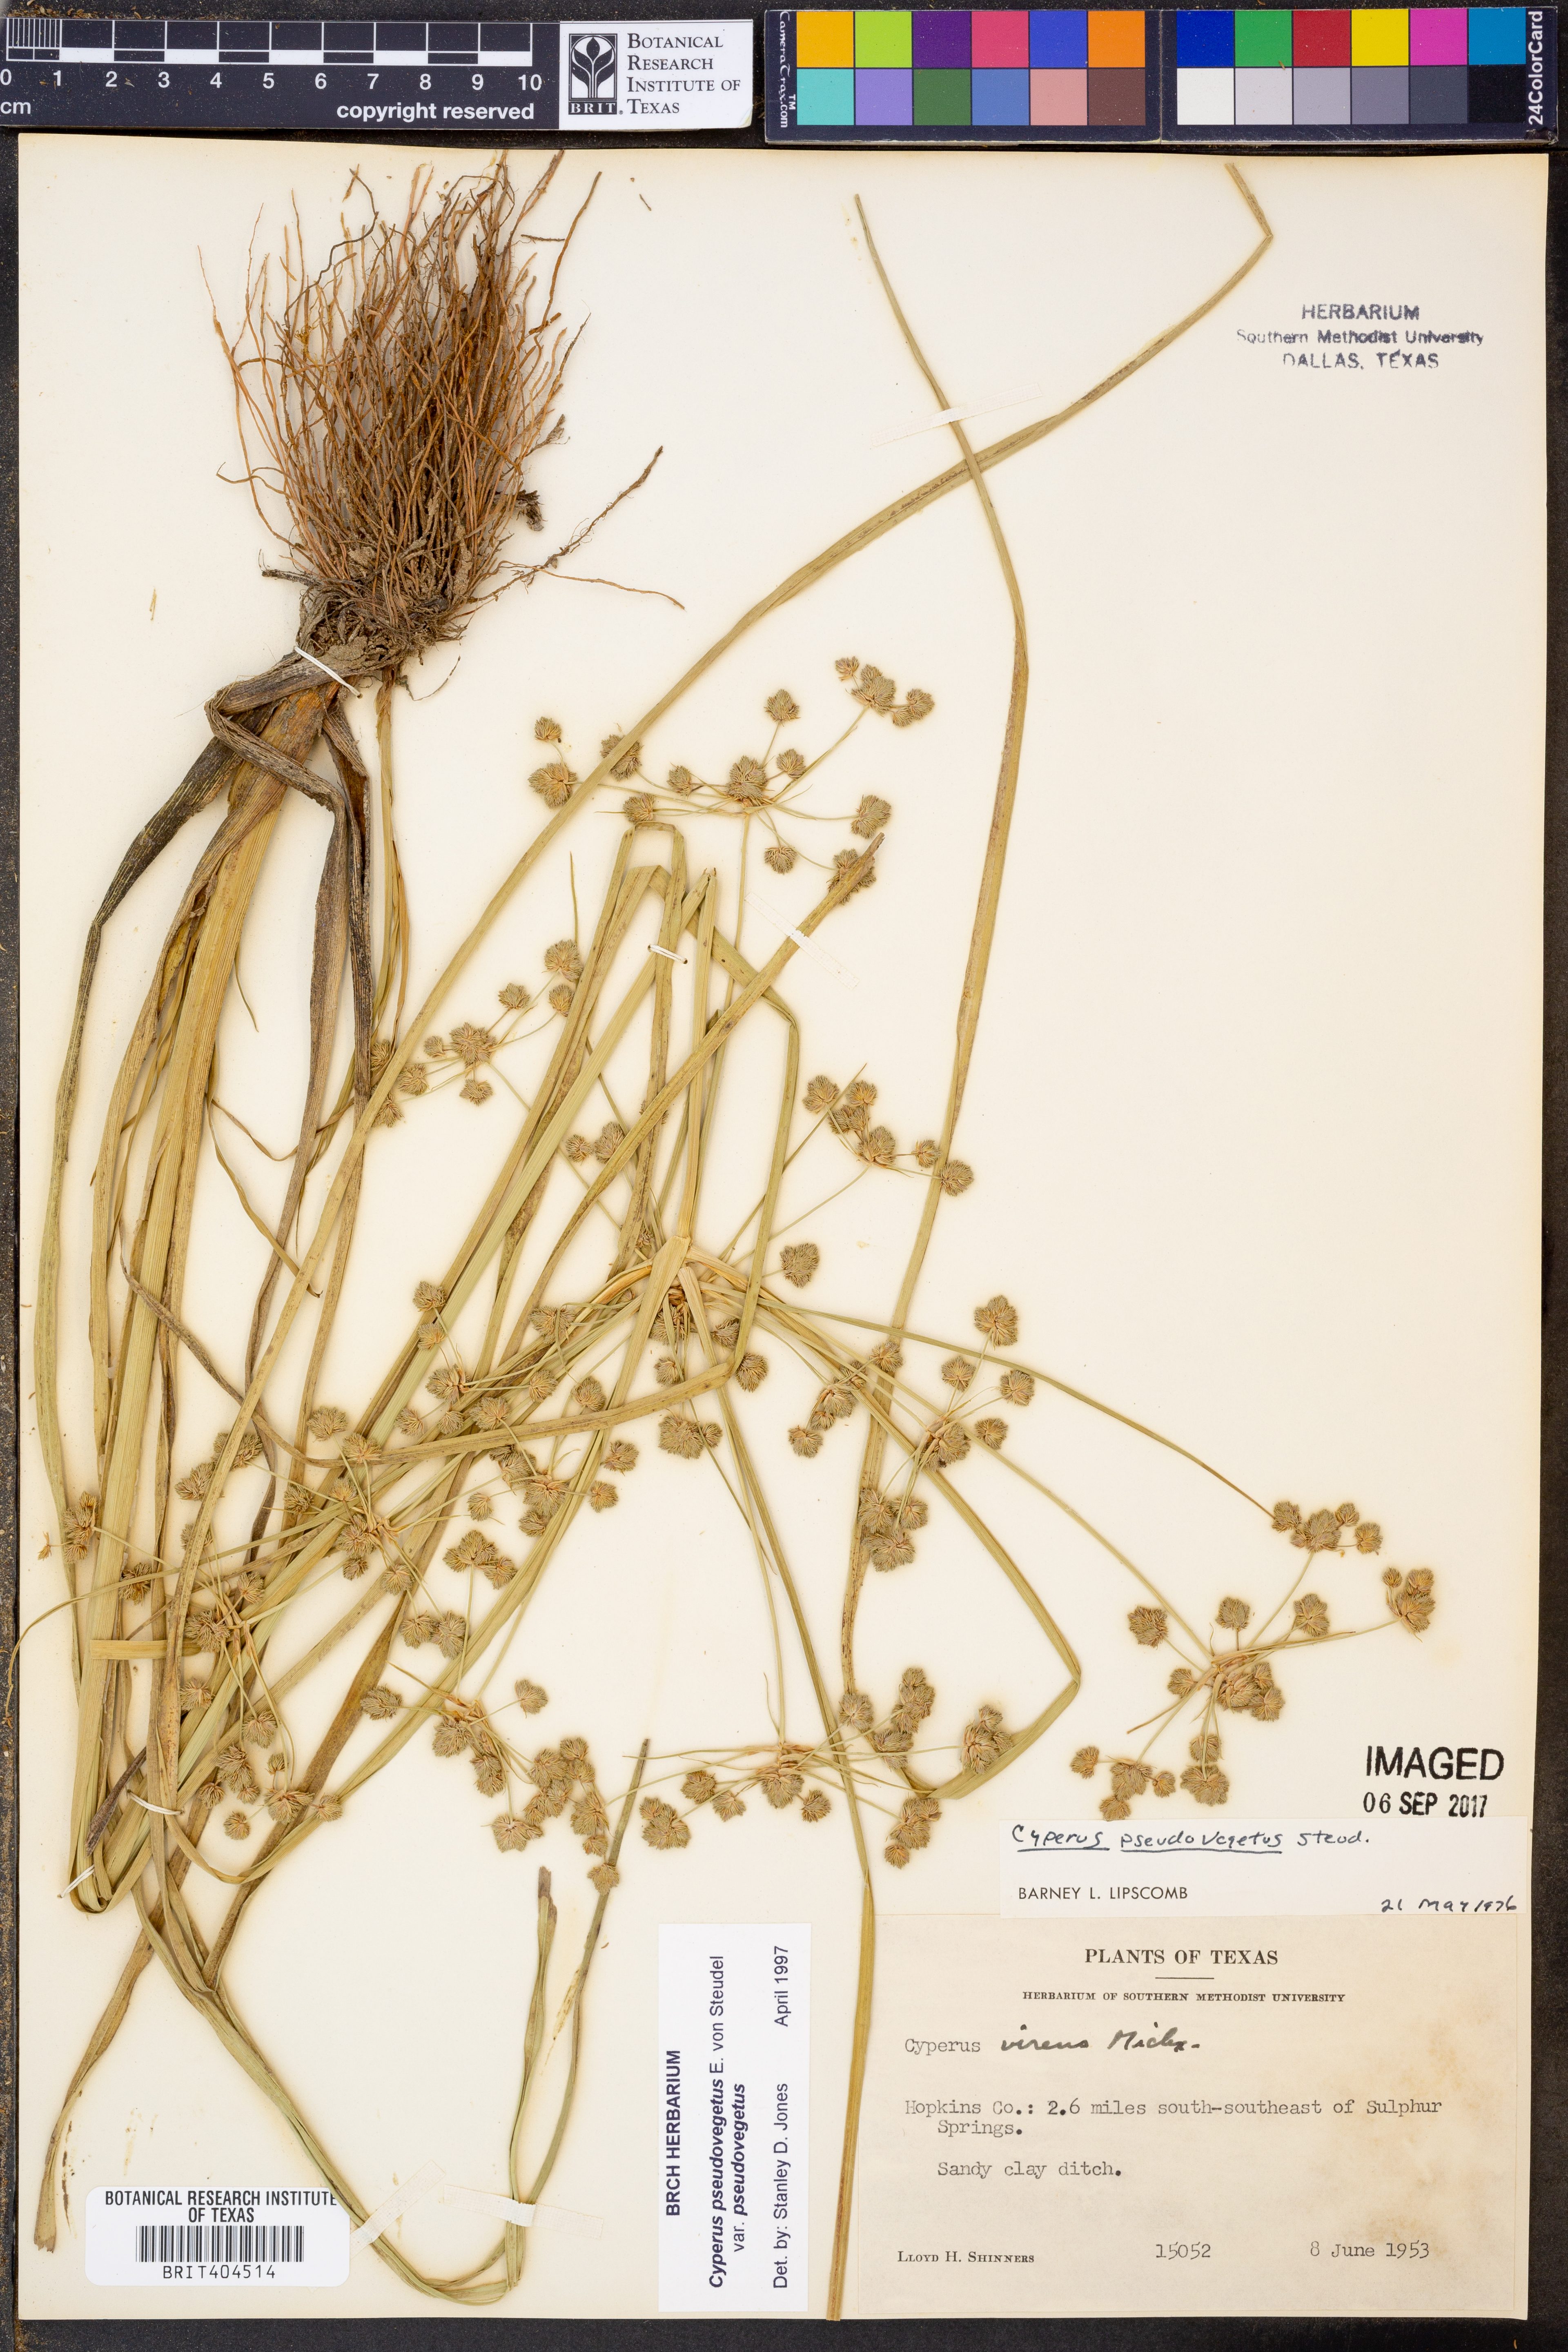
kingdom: Plantae
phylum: Tracheophyta
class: Liliopsida
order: Poales
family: Cyperaceae
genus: Cyperus
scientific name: Cyperus pseudovegetus
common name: Marsh flat sedge
